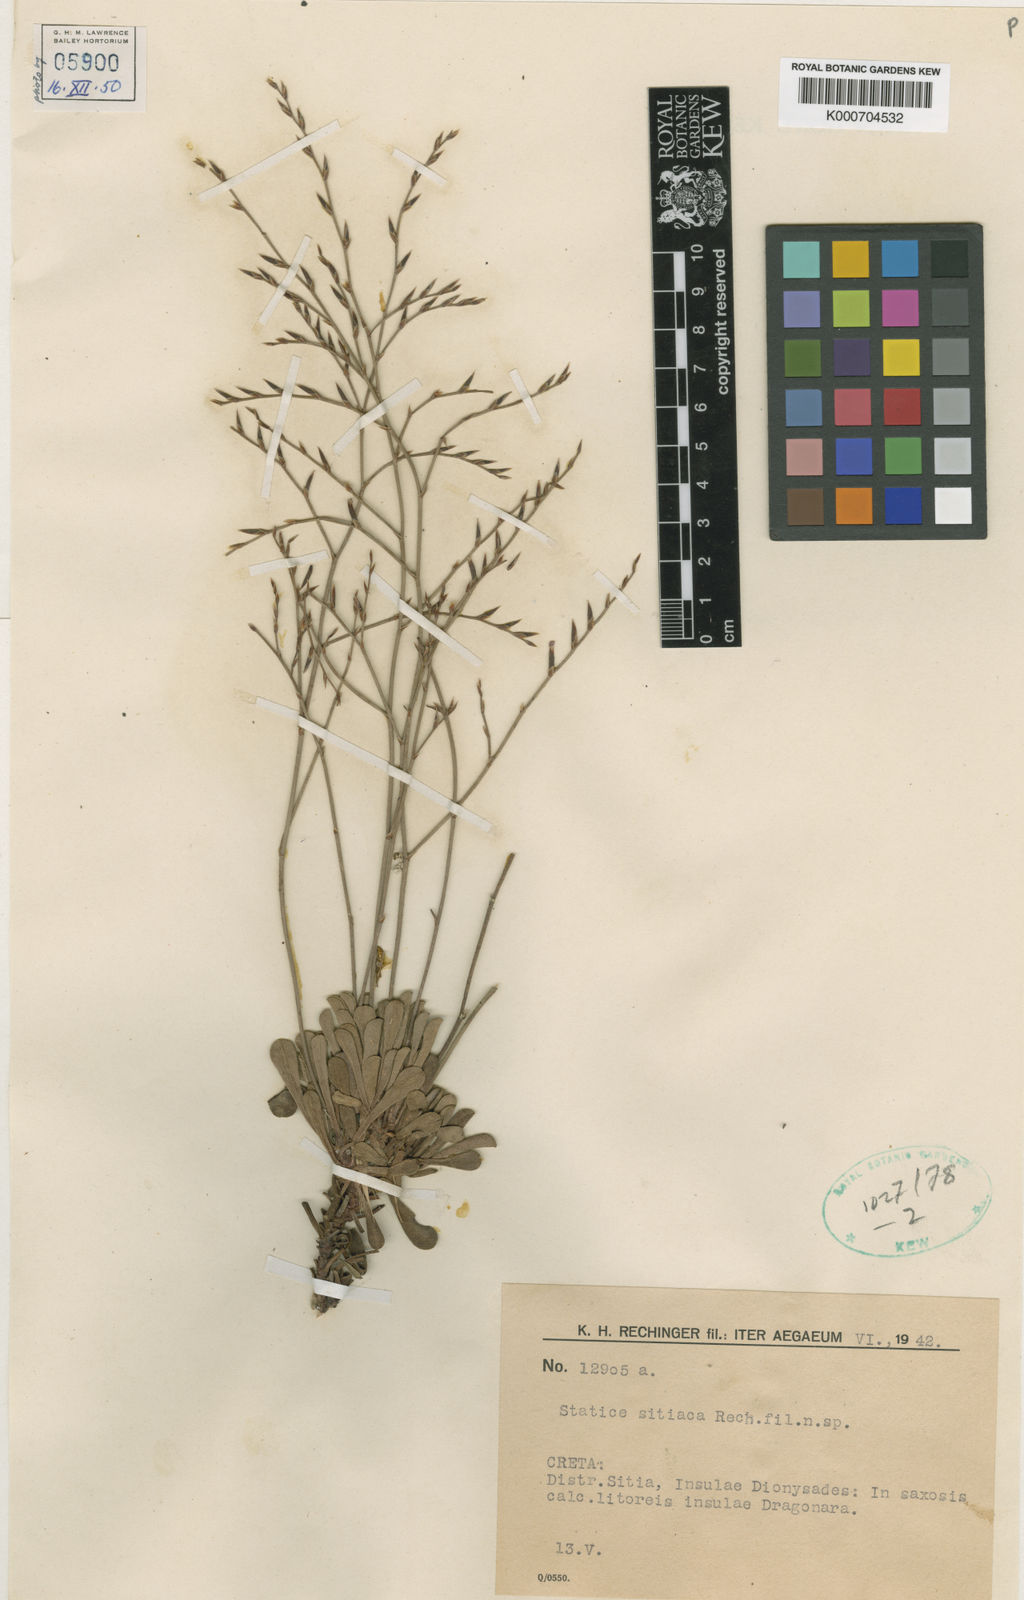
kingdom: Plantae
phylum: Tracheophyta
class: Magnoliopsida
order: Caryophyllales
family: Plumbaginaceae
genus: Limonium
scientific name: Limonium sitiacum
